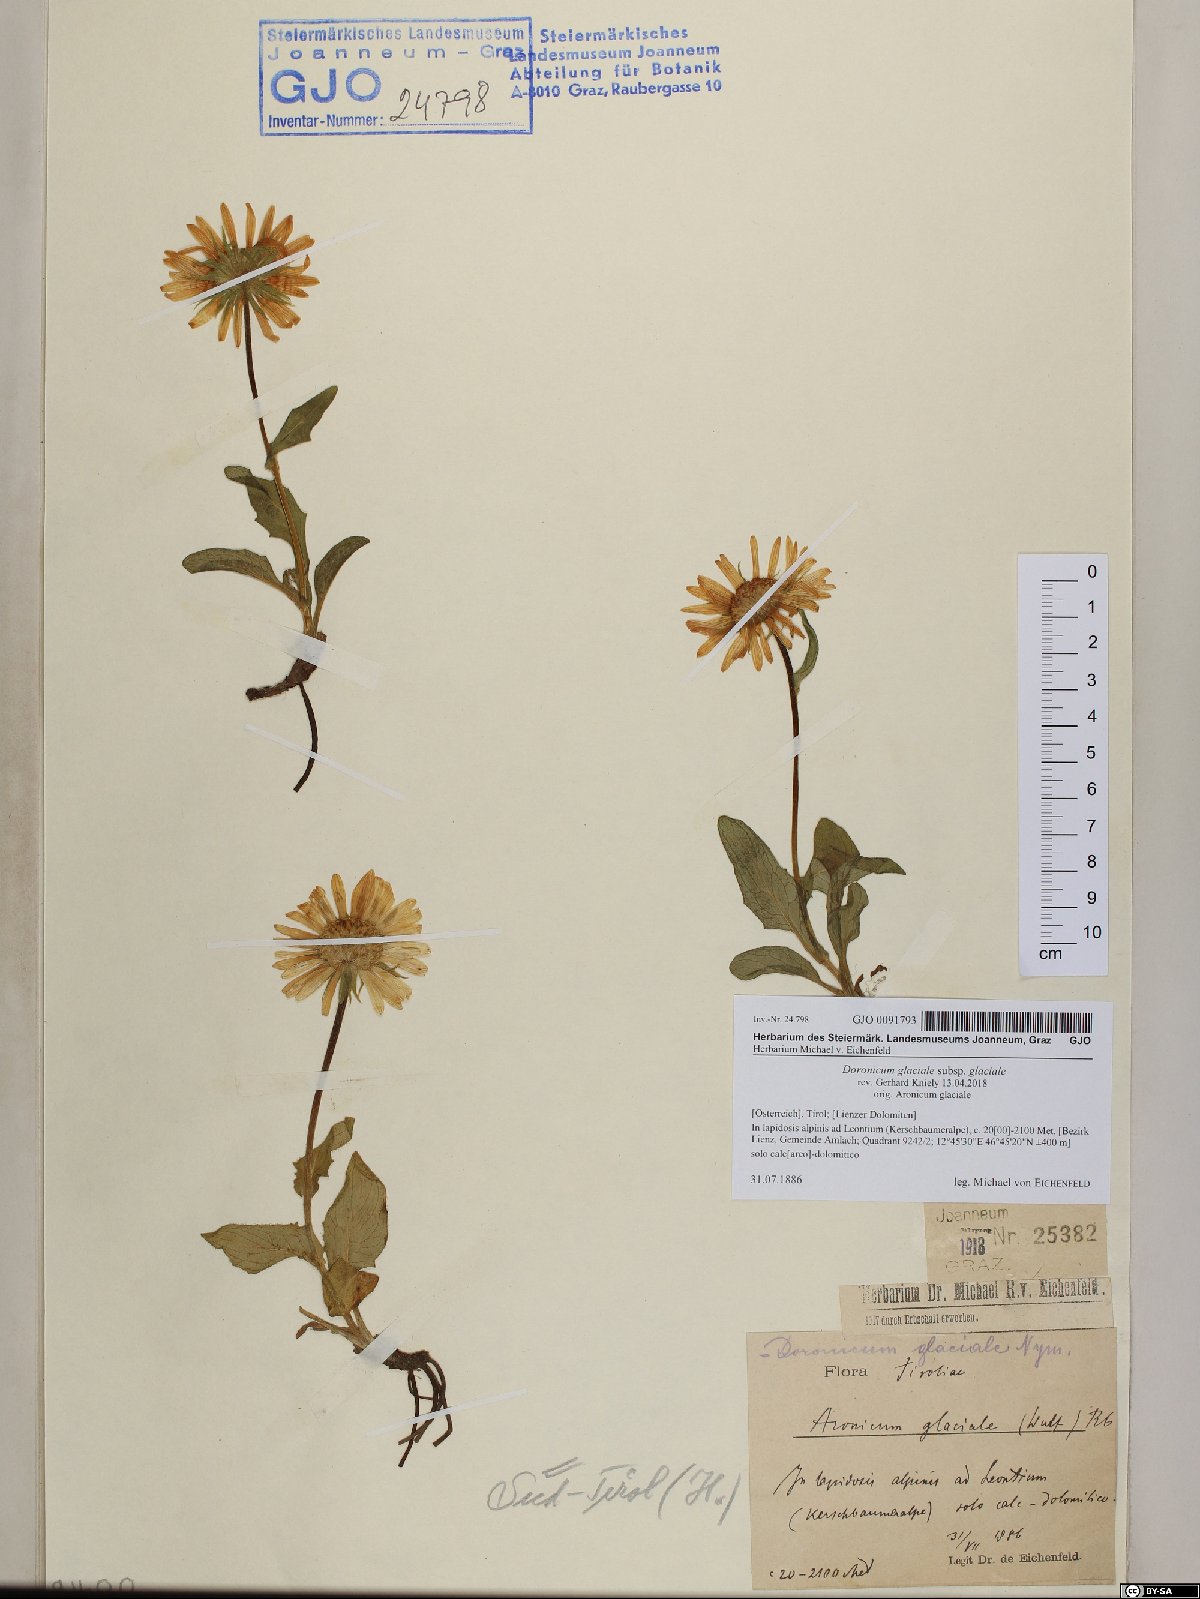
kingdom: Plantae
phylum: Tracheophyta
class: Magnoliopsida
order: Asterales
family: Asteraceae
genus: Doronicum
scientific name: Doronicum glaciale
